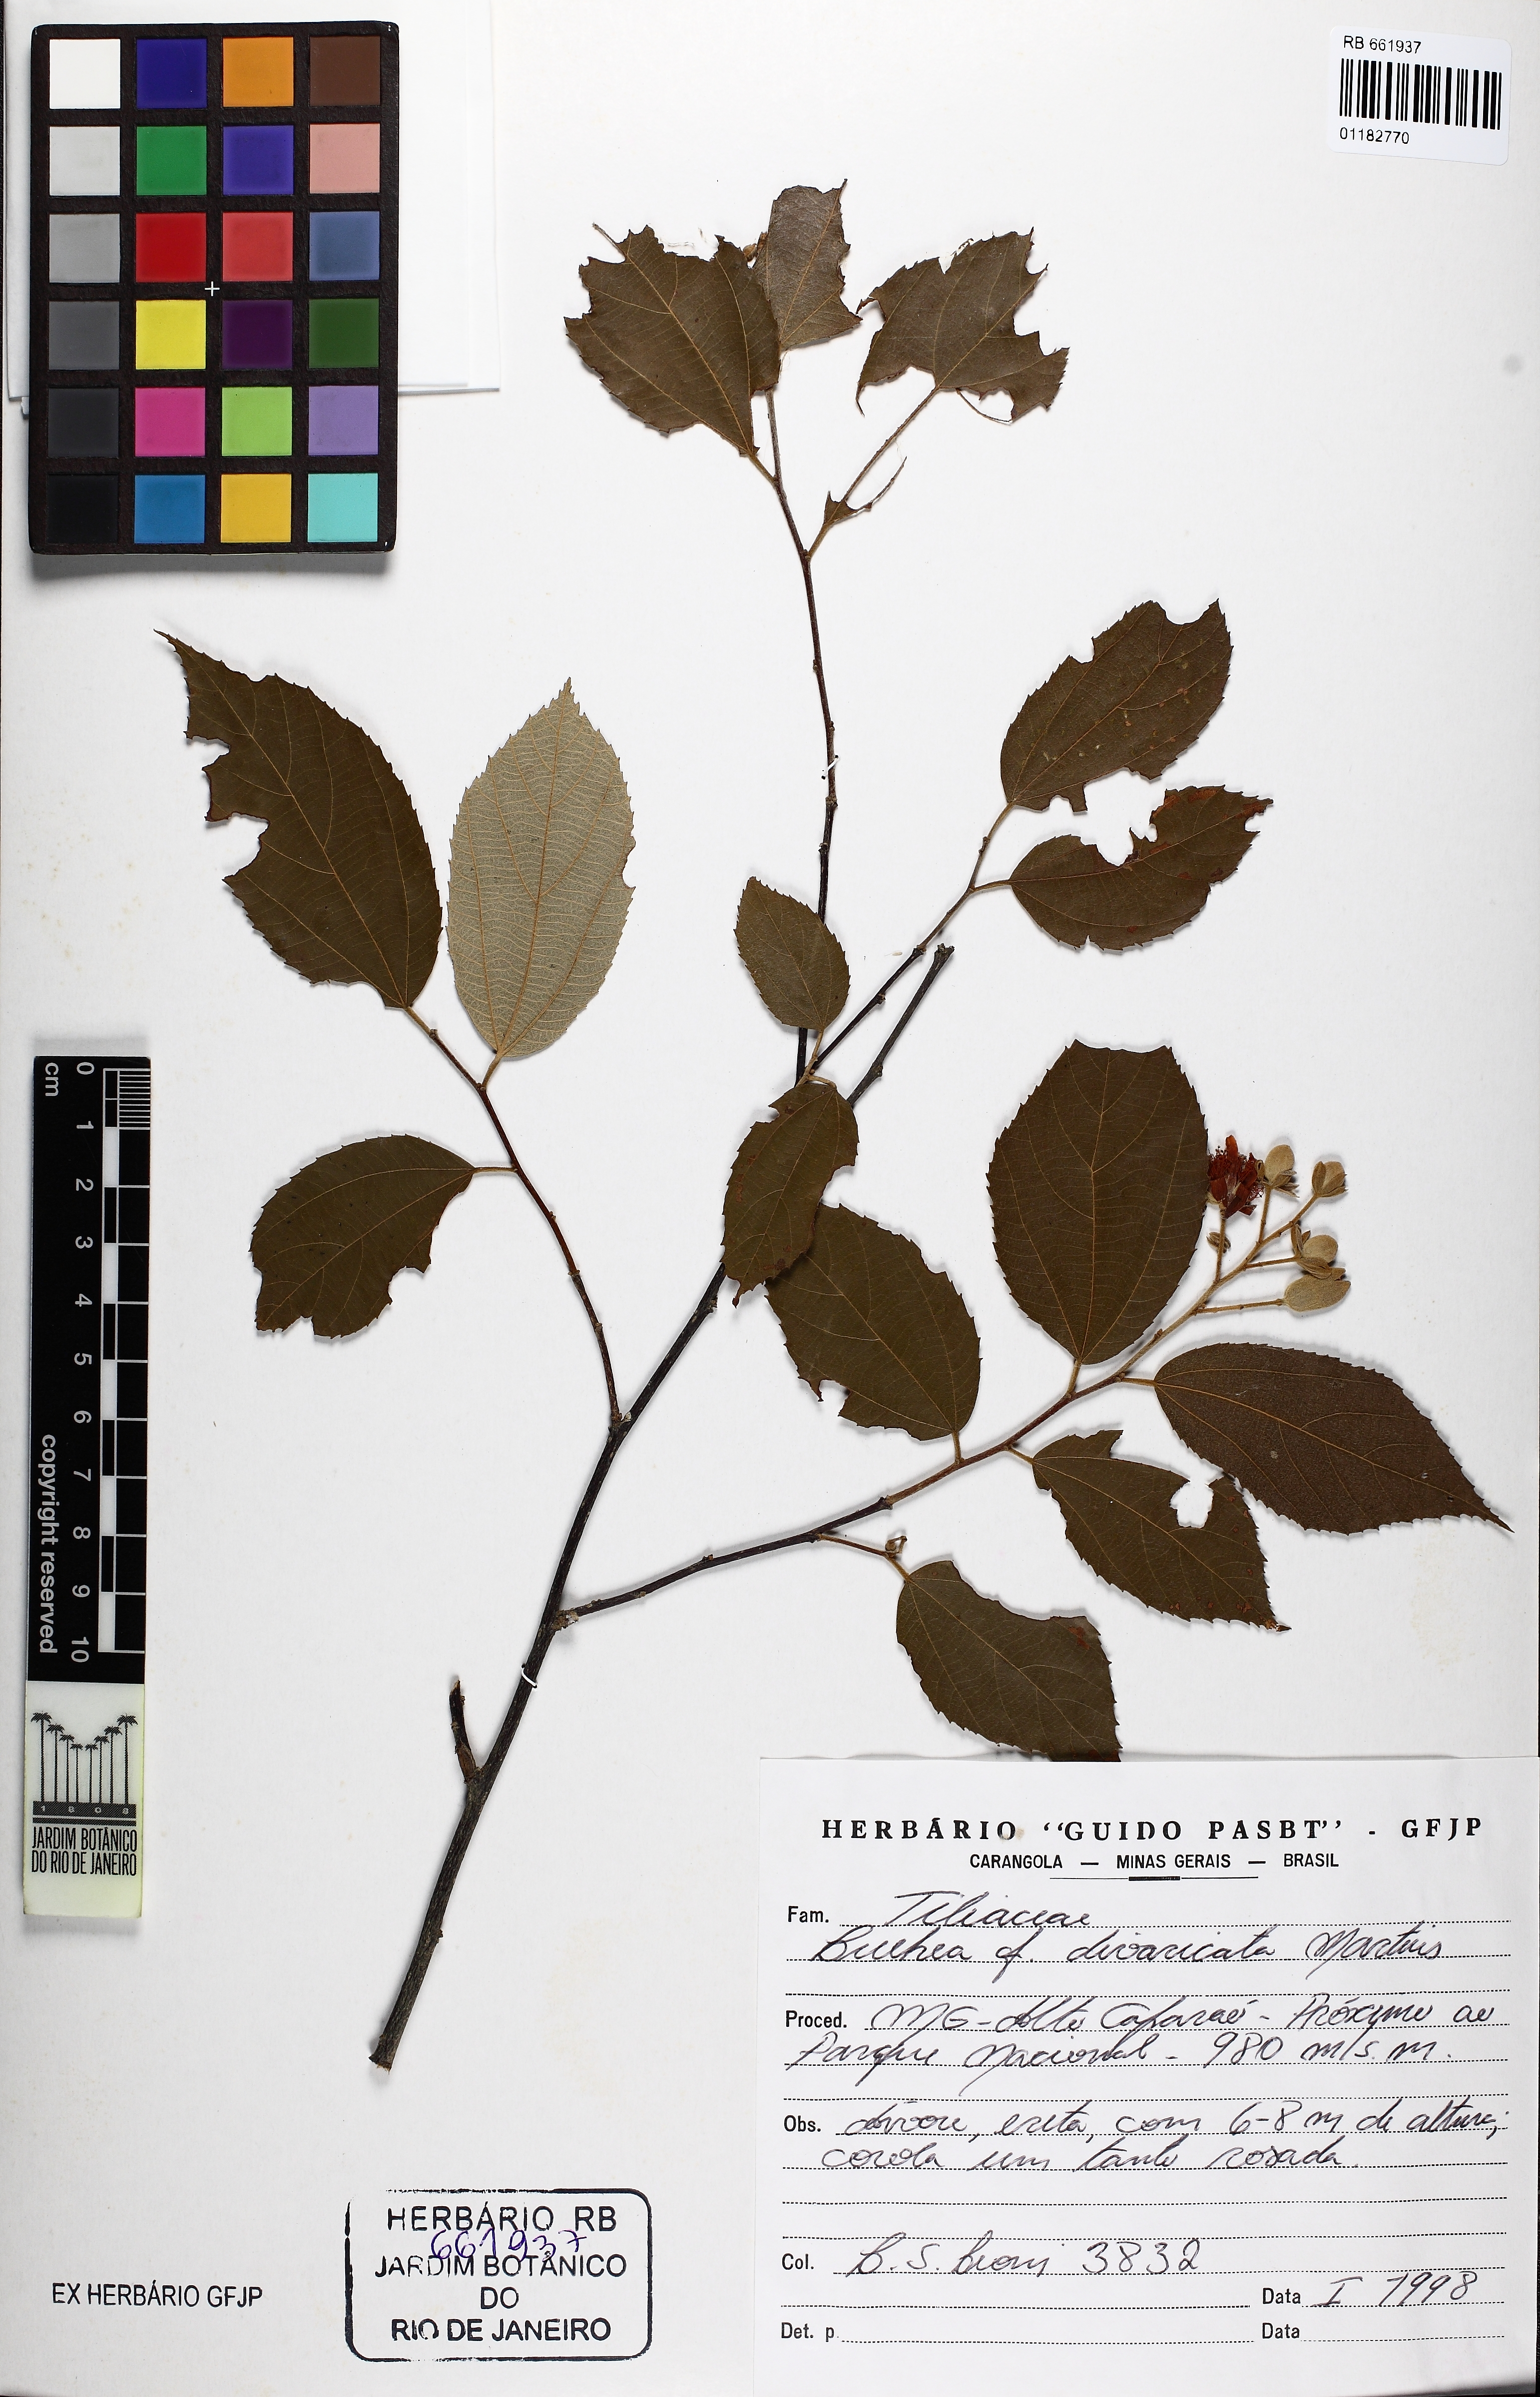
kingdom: Plantae
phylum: Tracheophyta
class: Magnoliopsida
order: Malvales
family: Malvaceae
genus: Luehea
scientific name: Luehea divaricata
